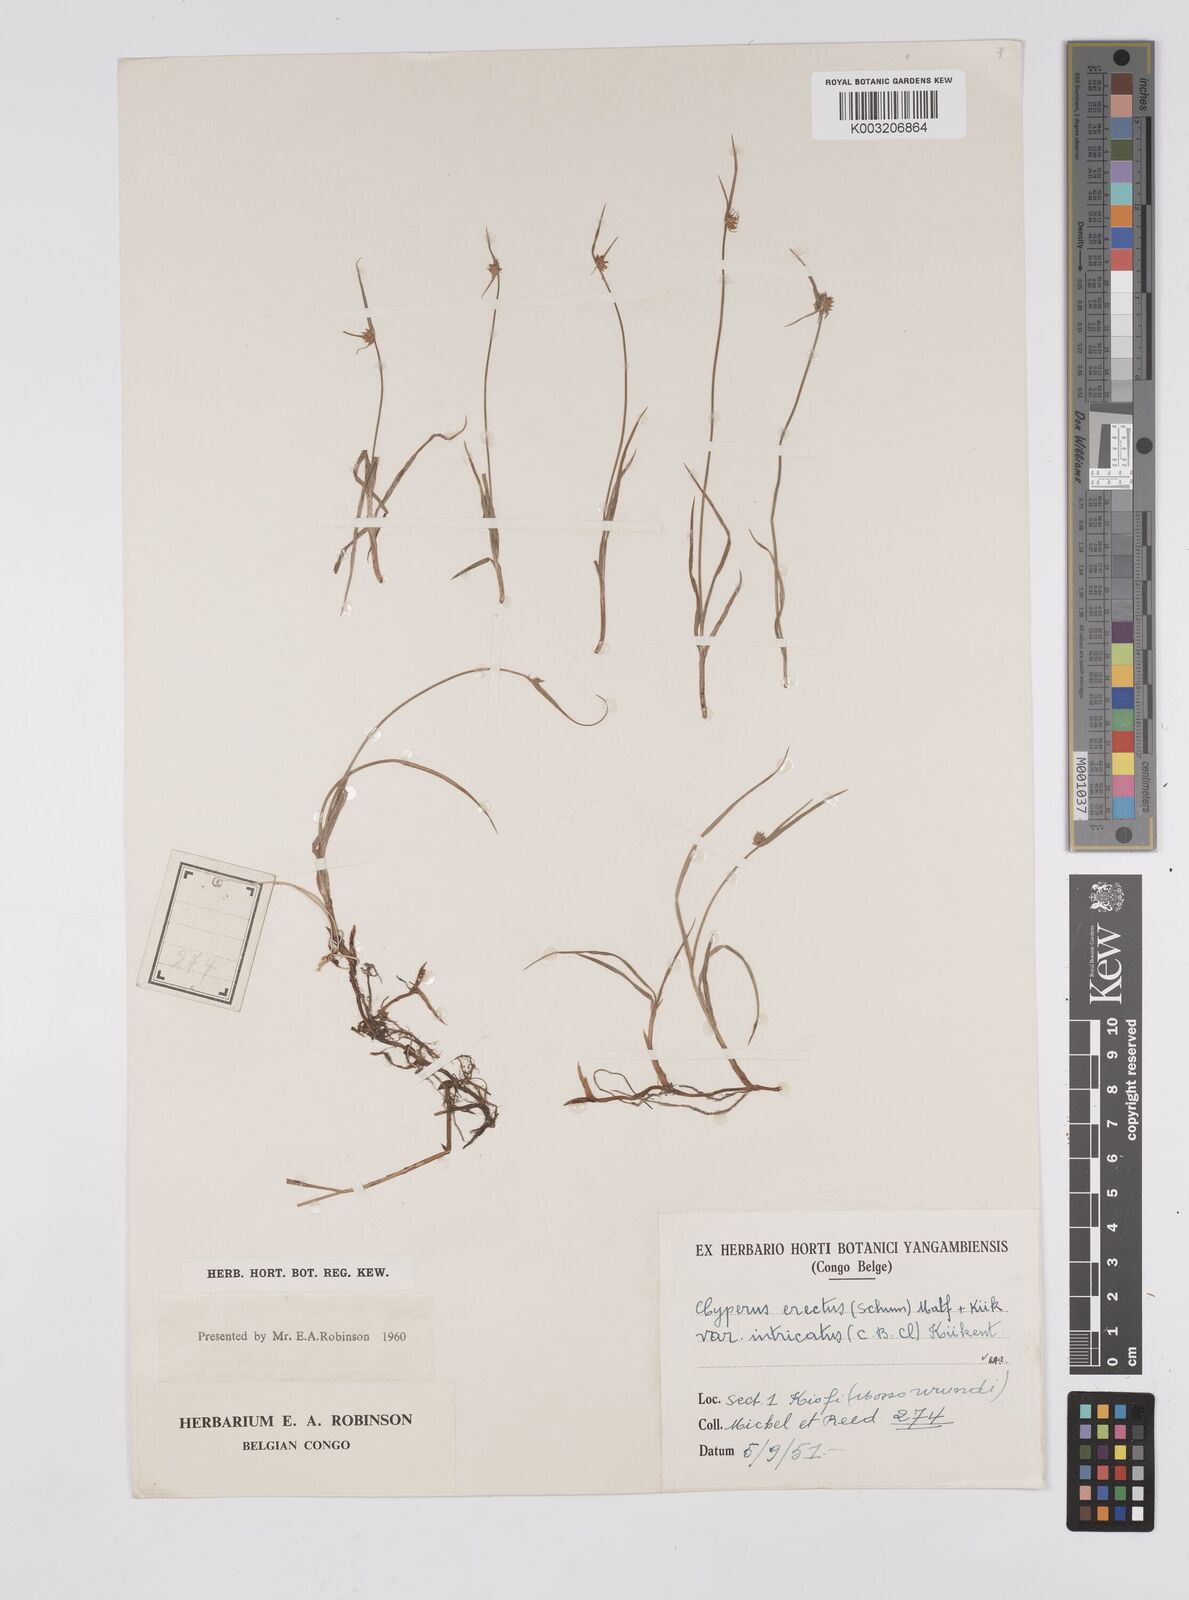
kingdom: Plantae
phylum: Tracheophyta
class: Liliopsida
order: Poales
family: Cyperaceae
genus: Cyperus
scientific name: Cyperus erectus
